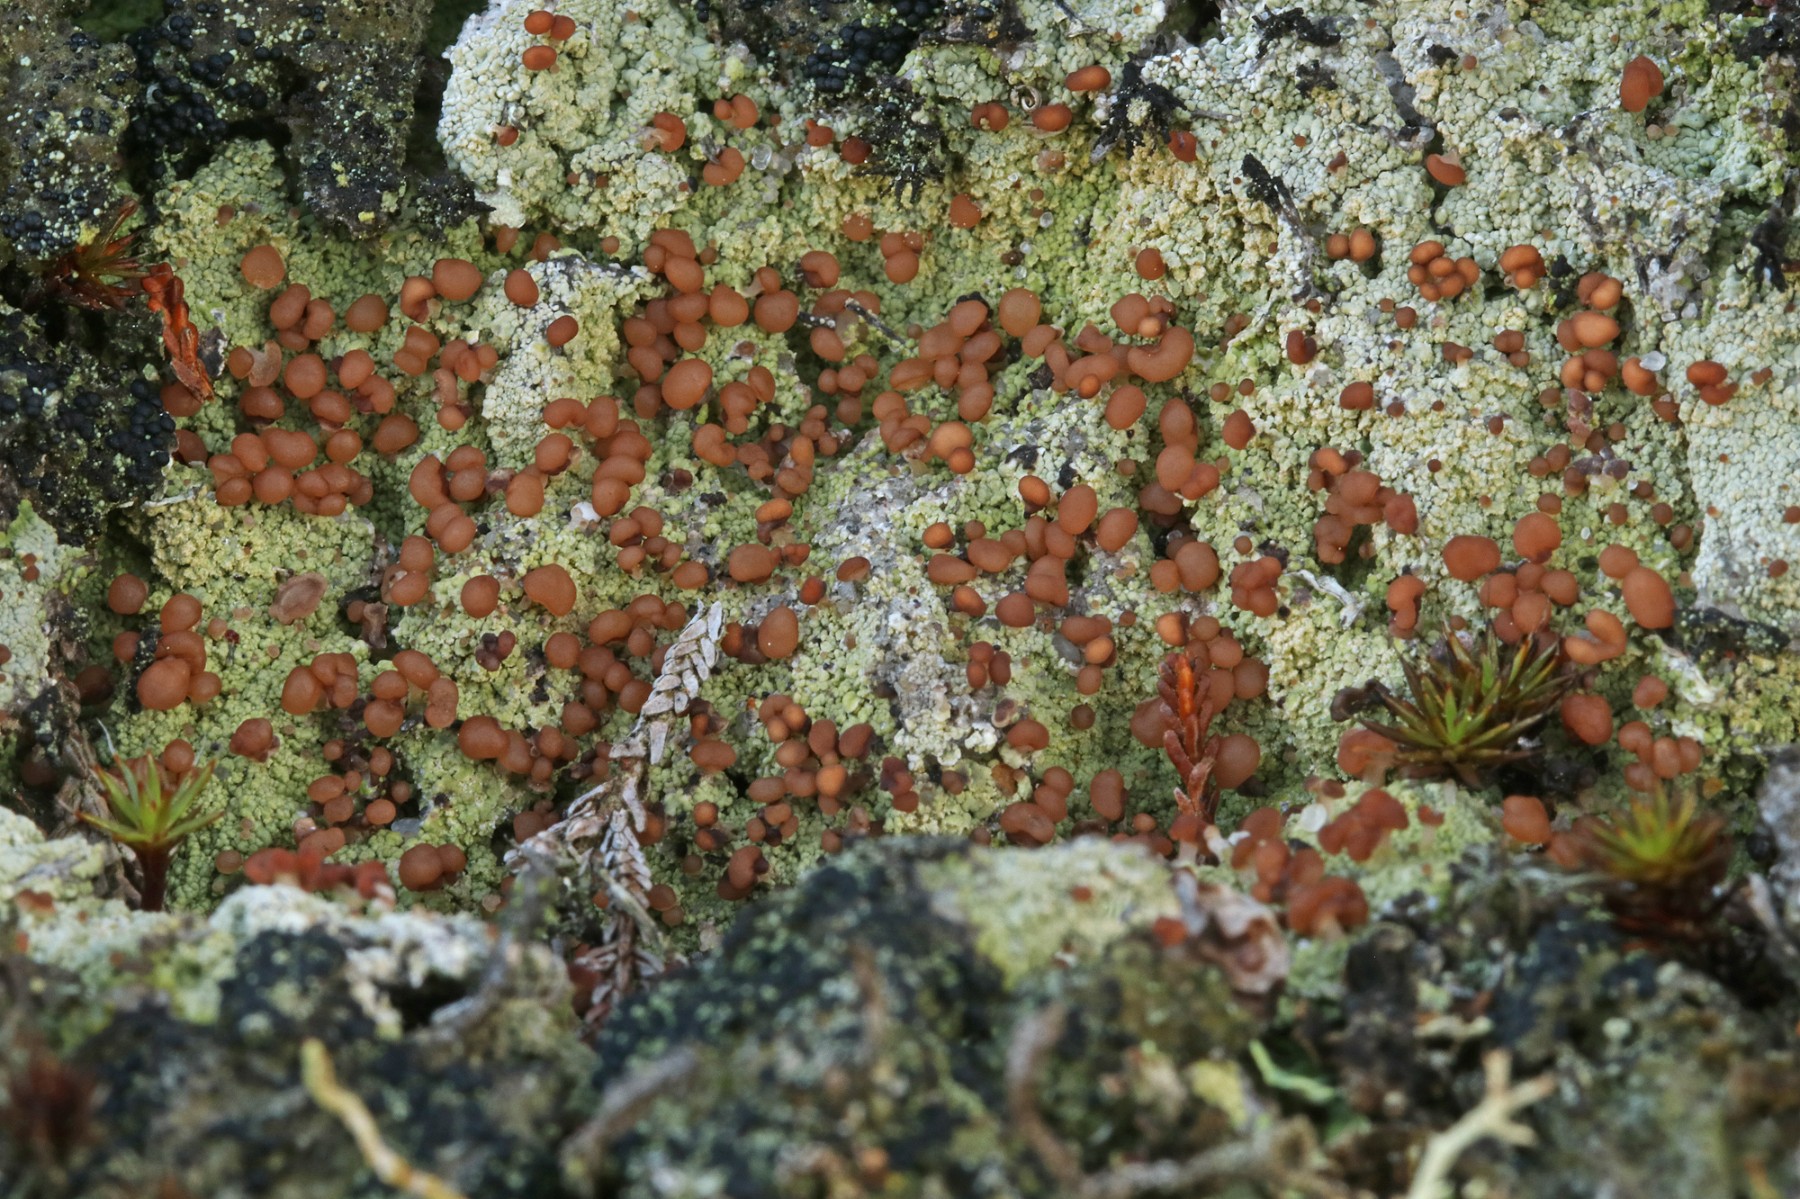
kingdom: Fungi
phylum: Ascomycota
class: Lecanoromycetes
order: Baeomycetales
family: Baeomycetaceae
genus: Baeomyces
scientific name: Baeomyces rufus
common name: rødbrun svampelav
